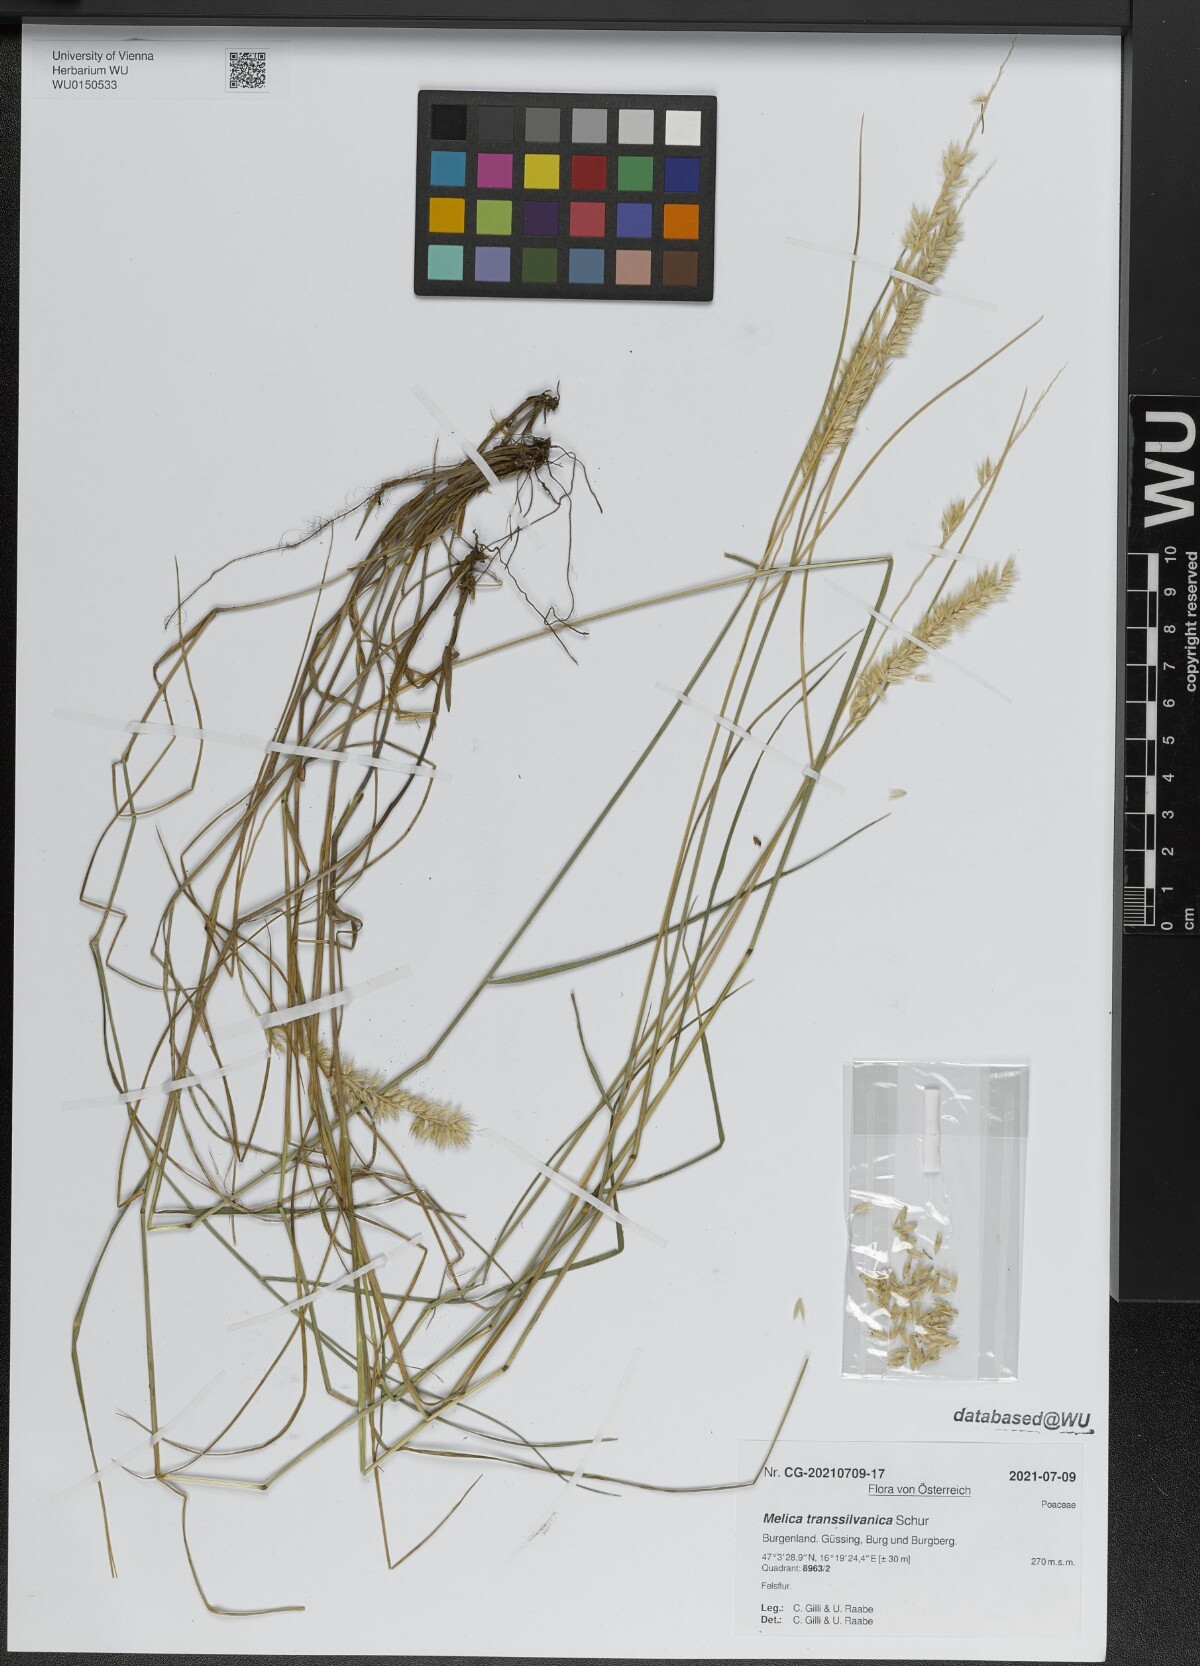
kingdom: Plantae
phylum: Tracheophyta
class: Liliopsida
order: Poales
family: Poaceae
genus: Melica
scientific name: Melica transsilvanica
